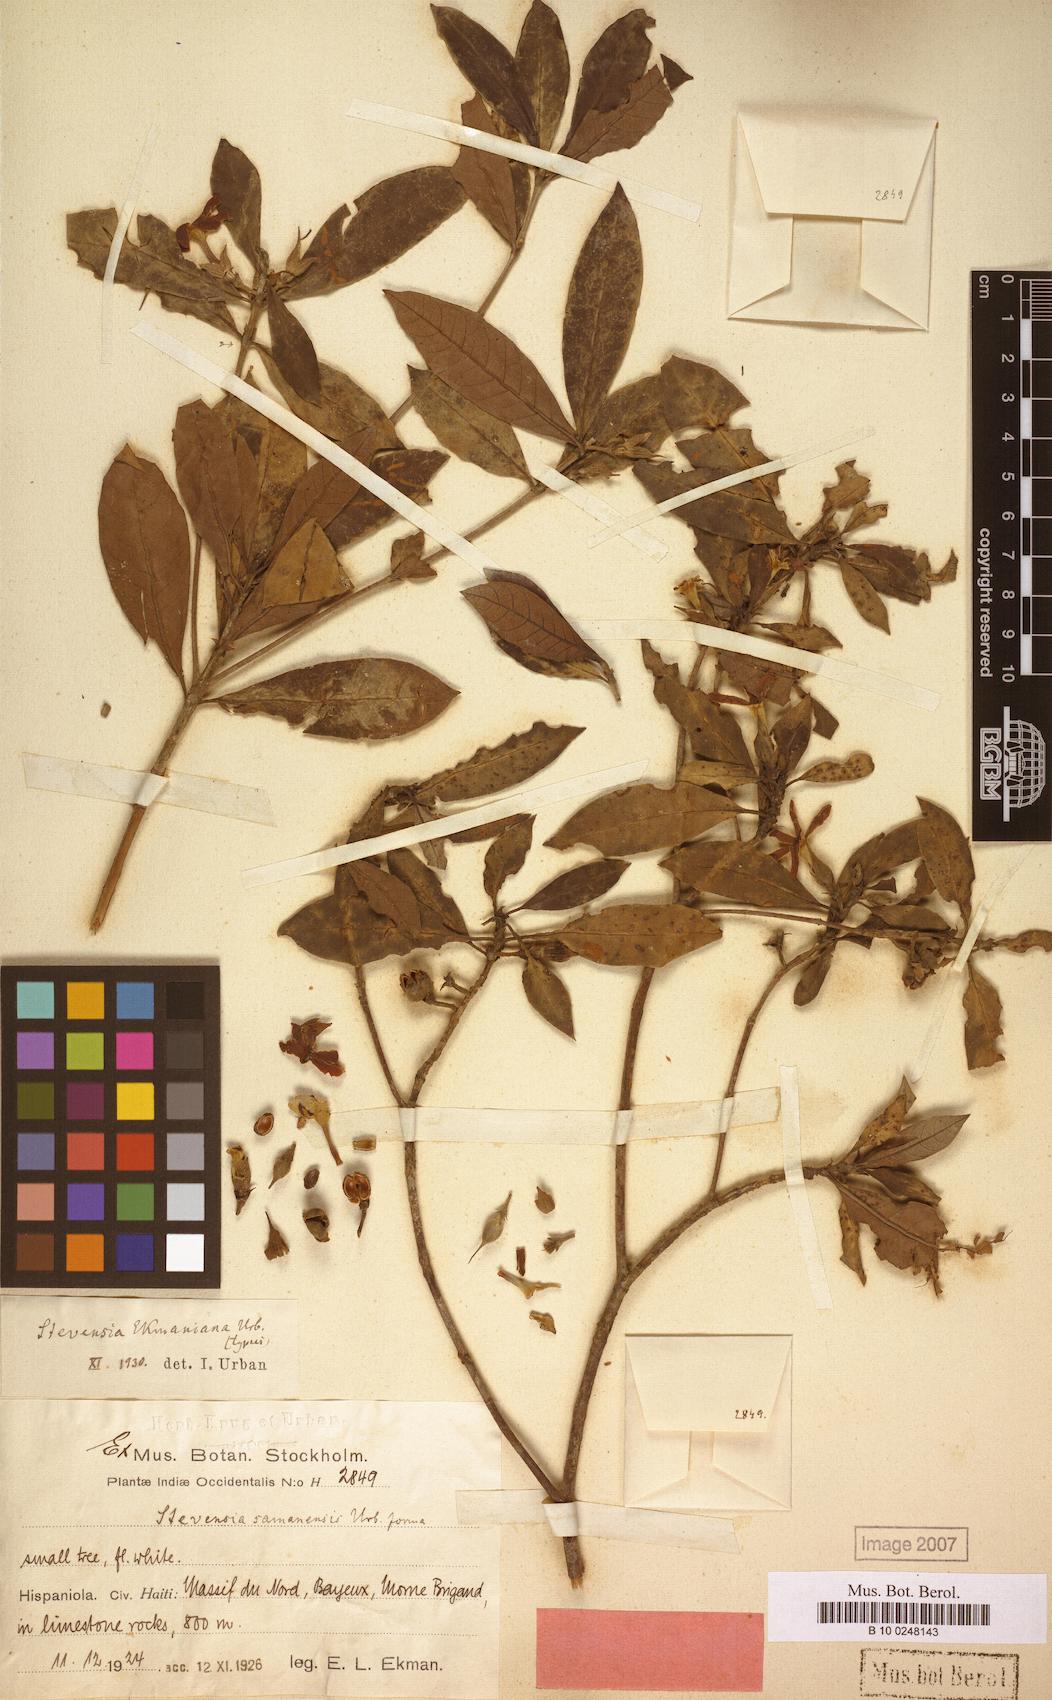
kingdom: Plantae
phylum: Tracheophyta
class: Magnoliopsida
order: Gentianales
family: Rubiaceae
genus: Stevensia
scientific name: Stevensia ekmaniana
